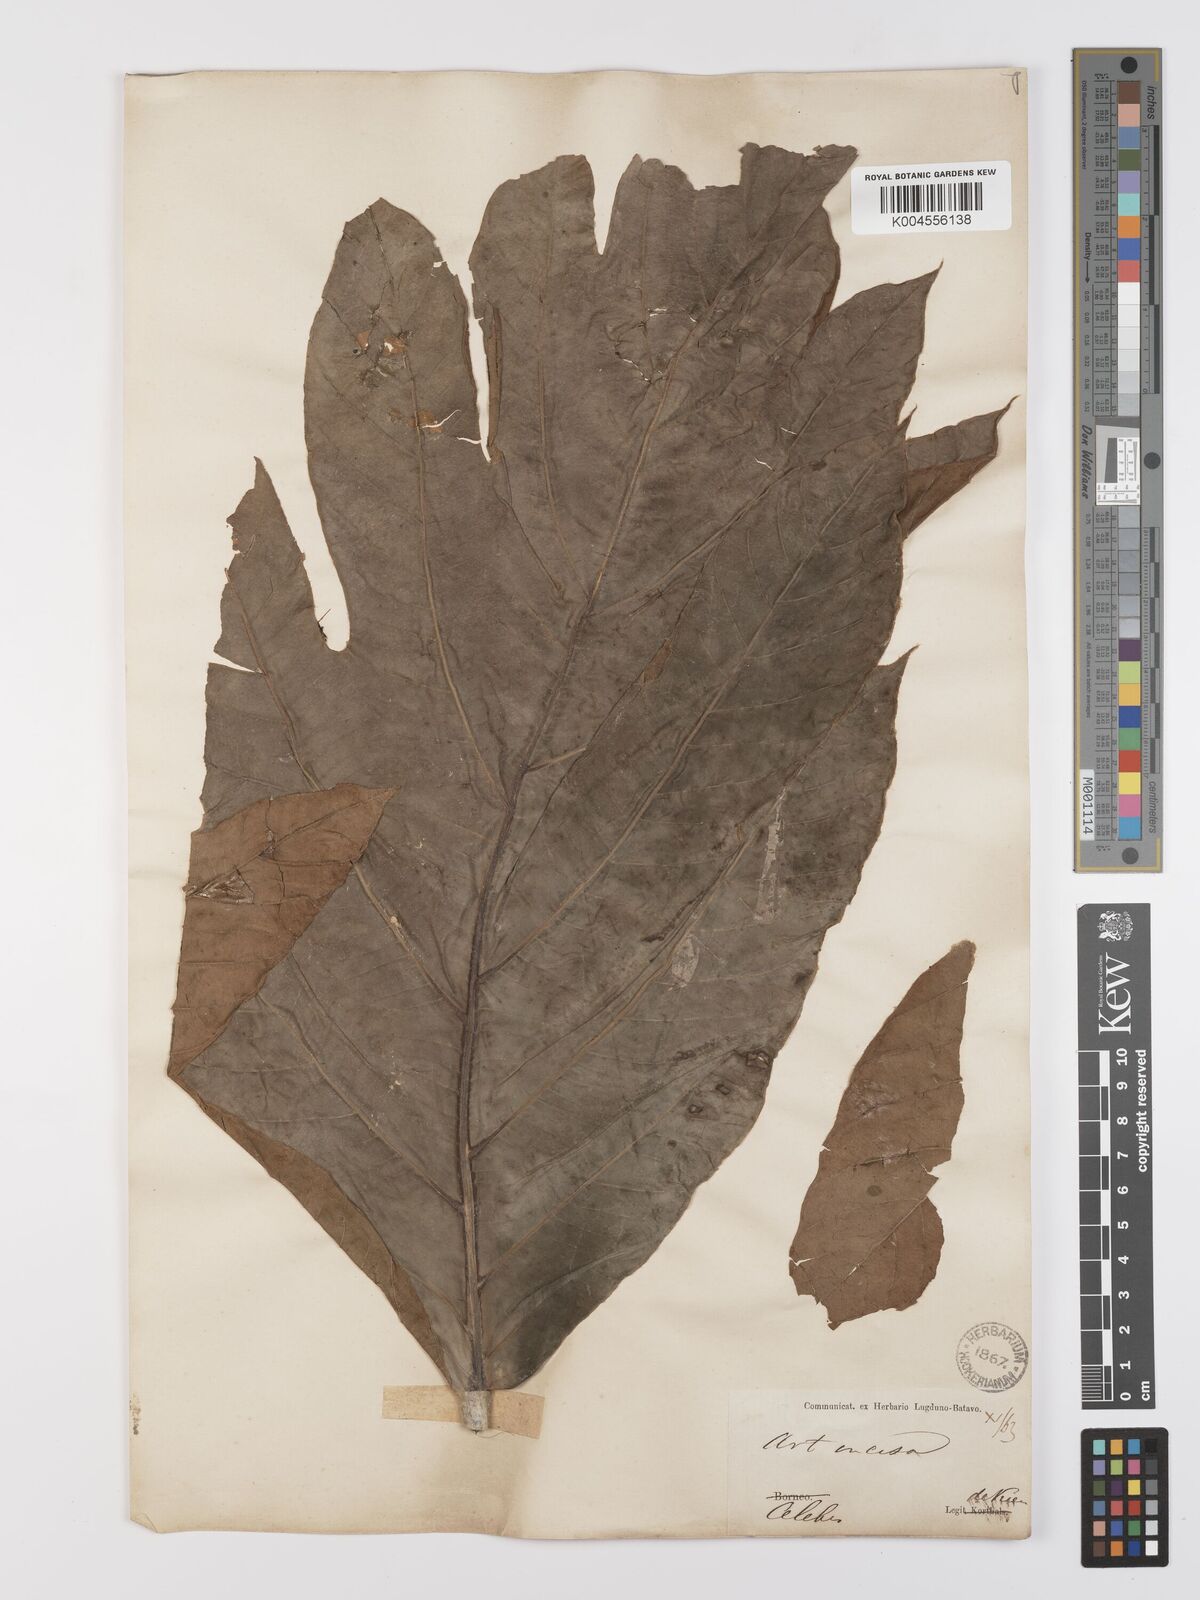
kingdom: Plantae
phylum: Tracheophyta
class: Magnoliopsida
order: Rosales
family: Moraceae
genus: Artocarpus
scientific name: Artocarpus altilis
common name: Breadfruit
